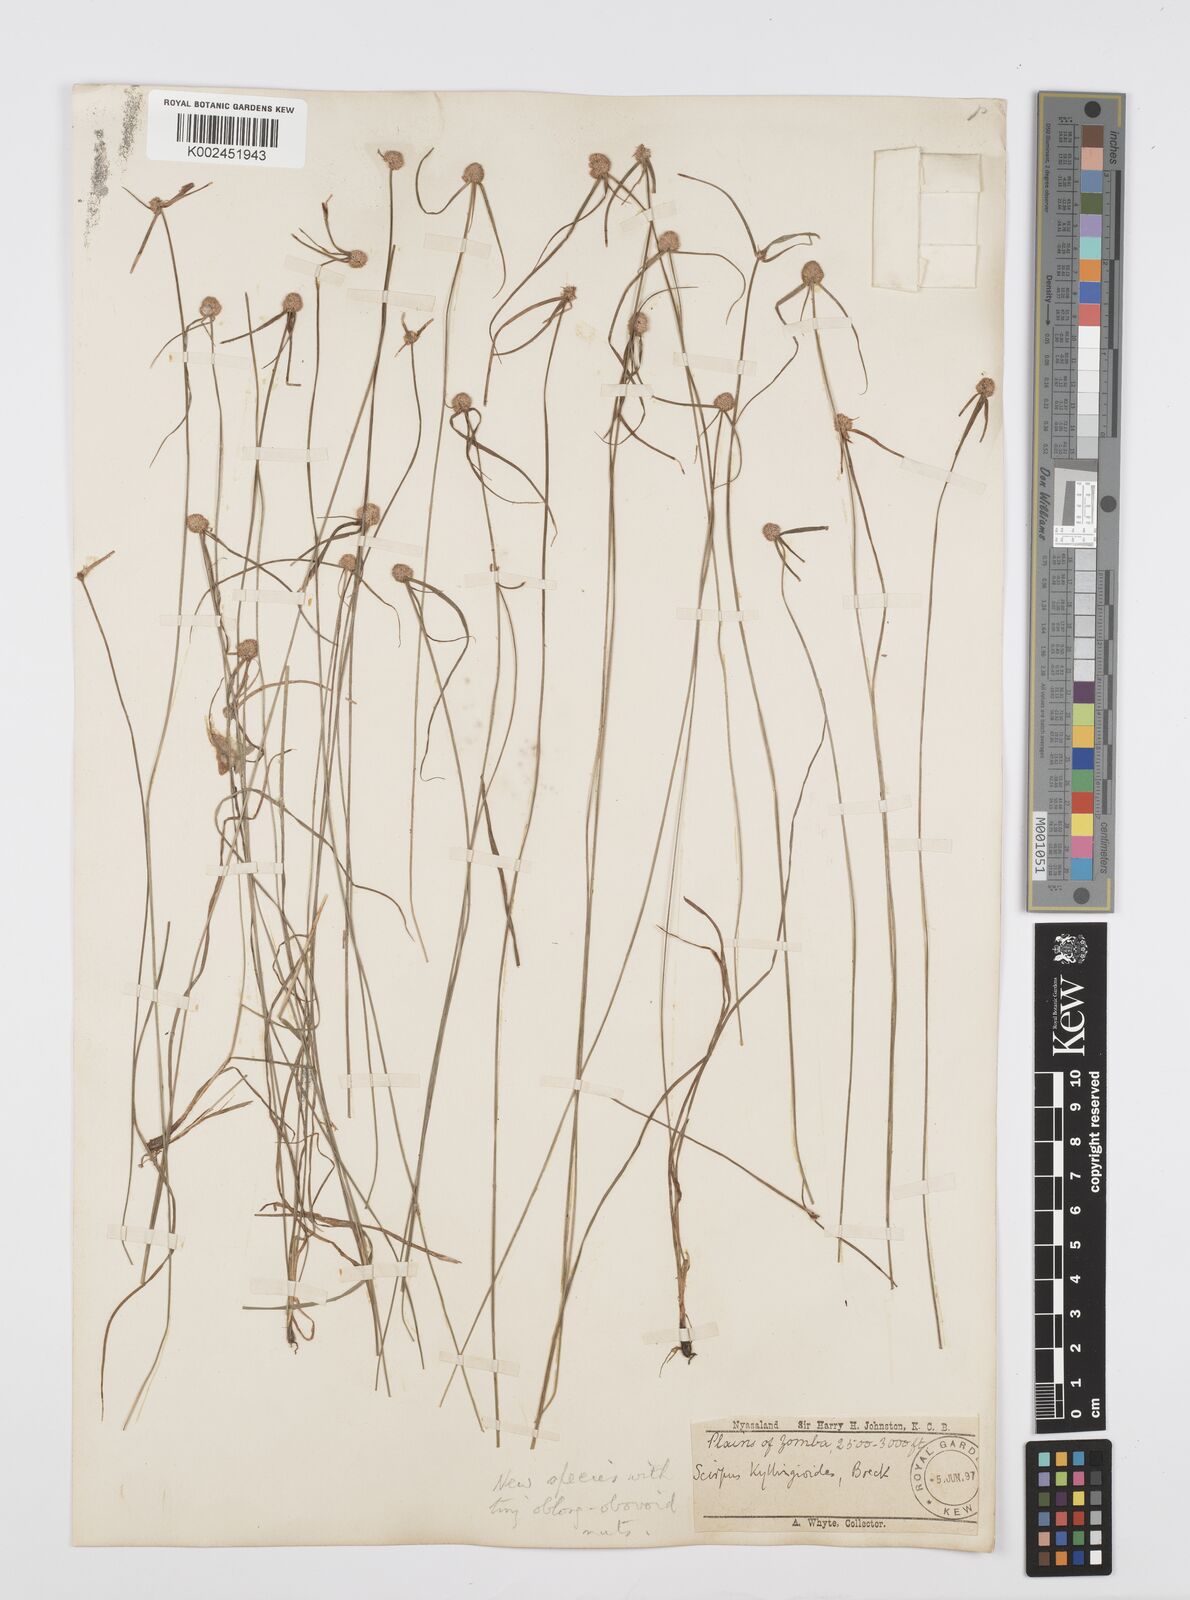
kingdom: Plantae
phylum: Tracheophyta
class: Liliopsida
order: Poales
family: Cyperaceae
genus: Cyperus
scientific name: Cyperus microcephalus
